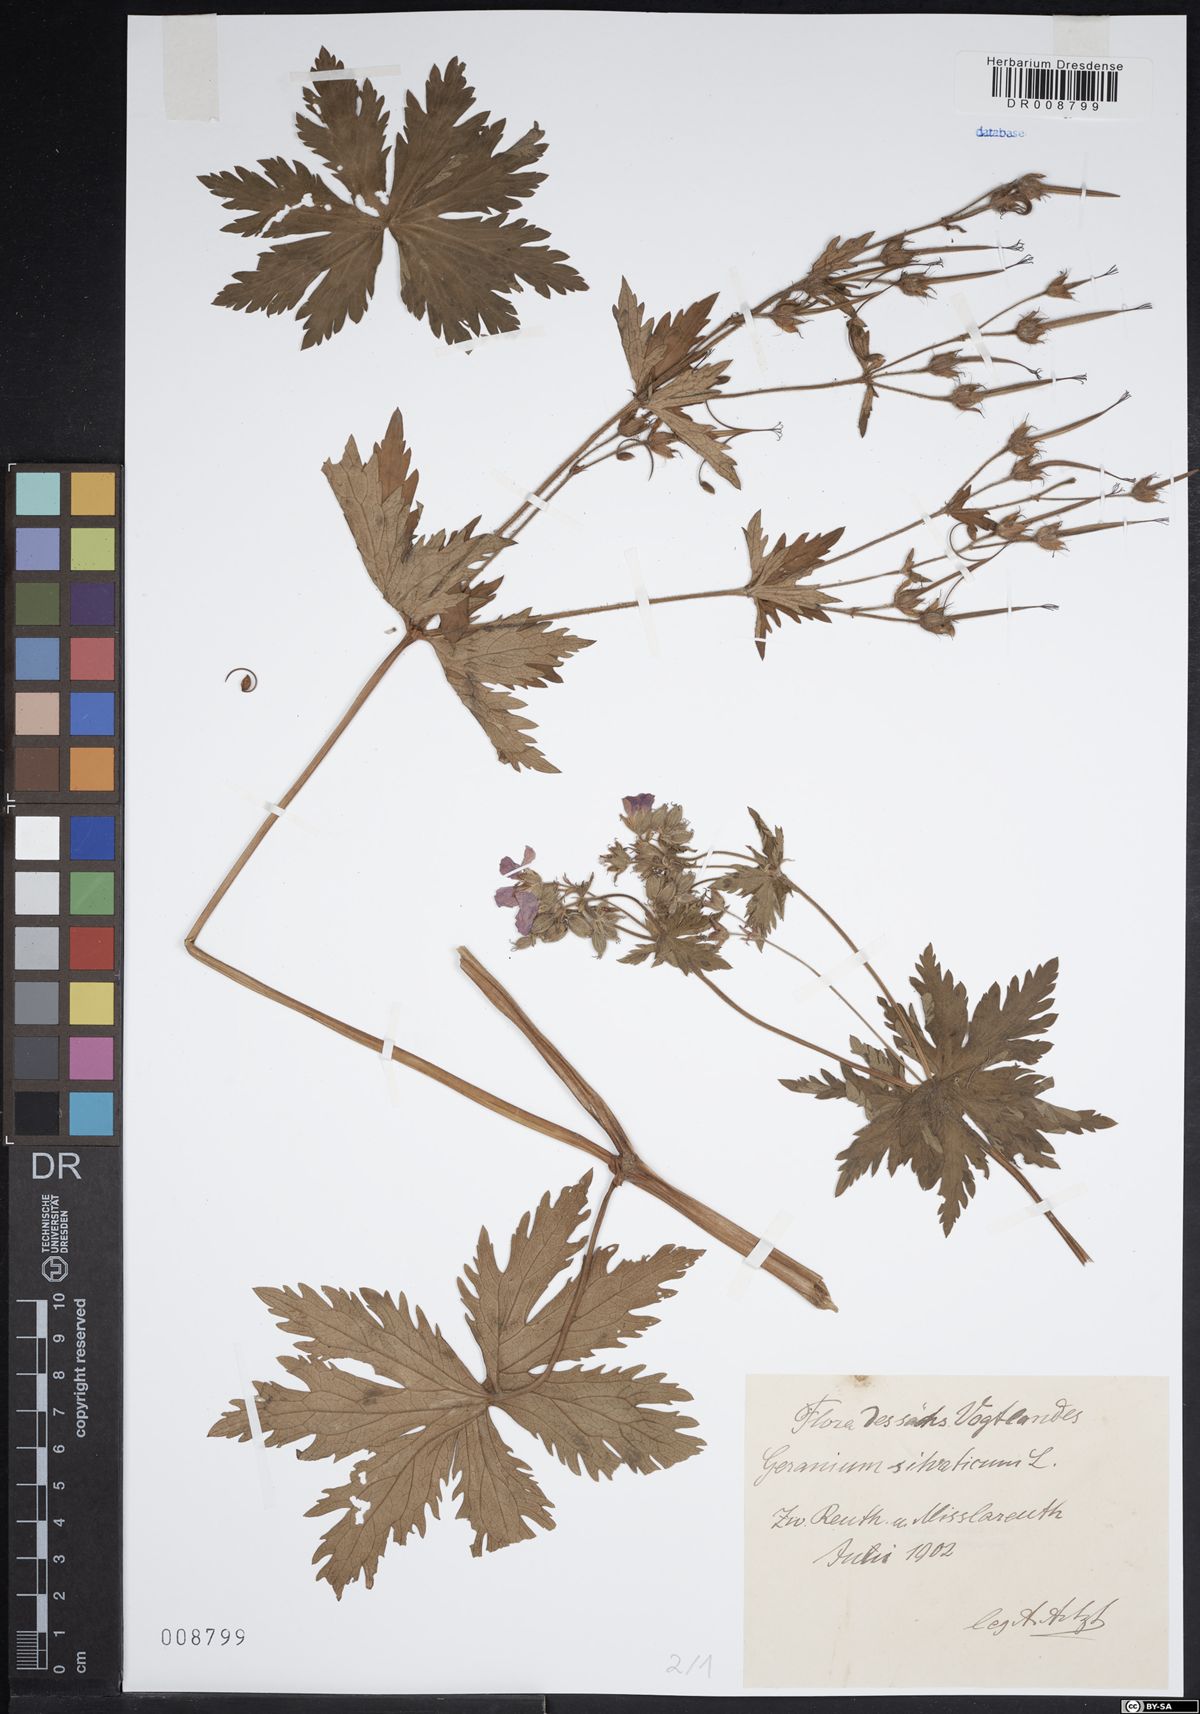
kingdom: Plantae
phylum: Tracheophyta
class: Magnoliopsida
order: Geraniales
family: Geraniaceae
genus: Geranium
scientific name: Geranium sylvaticum
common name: Wood crane's-bill
